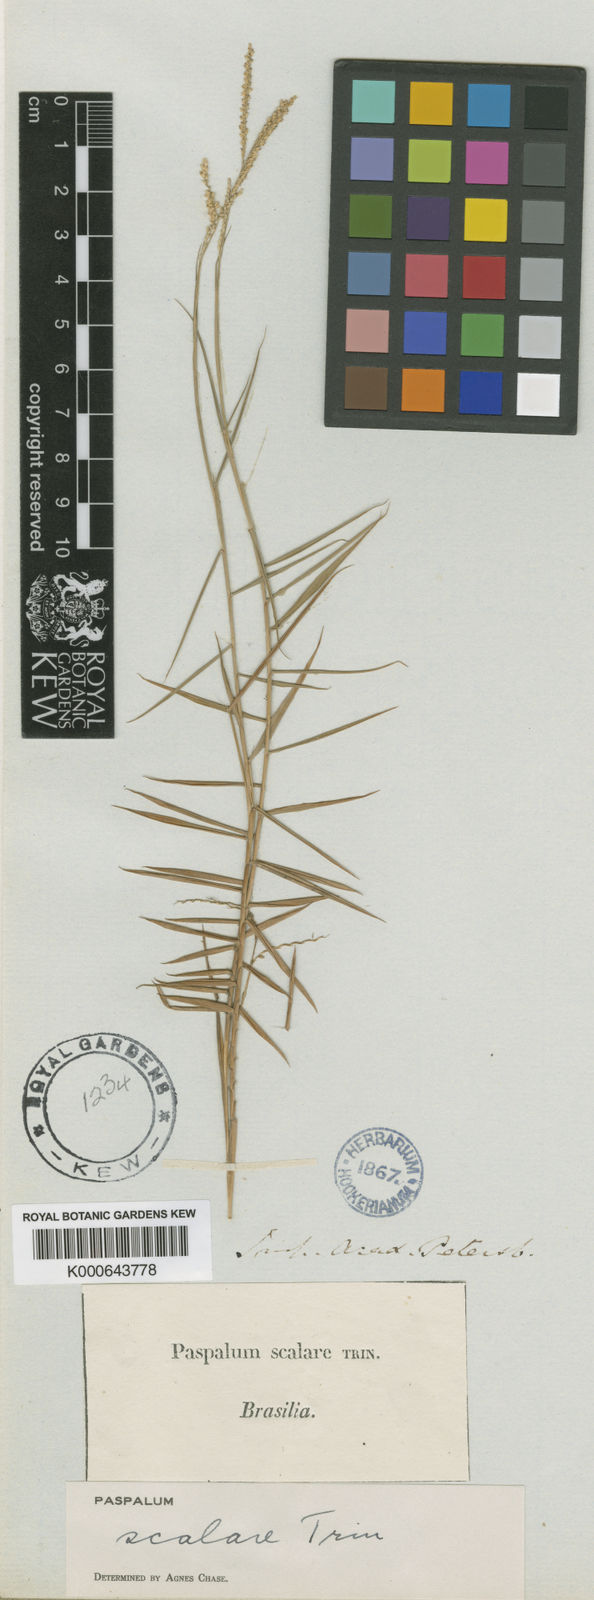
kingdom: Plantae
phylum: Tracheophyta
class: Liliopsida
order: Poales
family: Poaceae
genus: Paspalum
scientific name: Paspalum scalare
